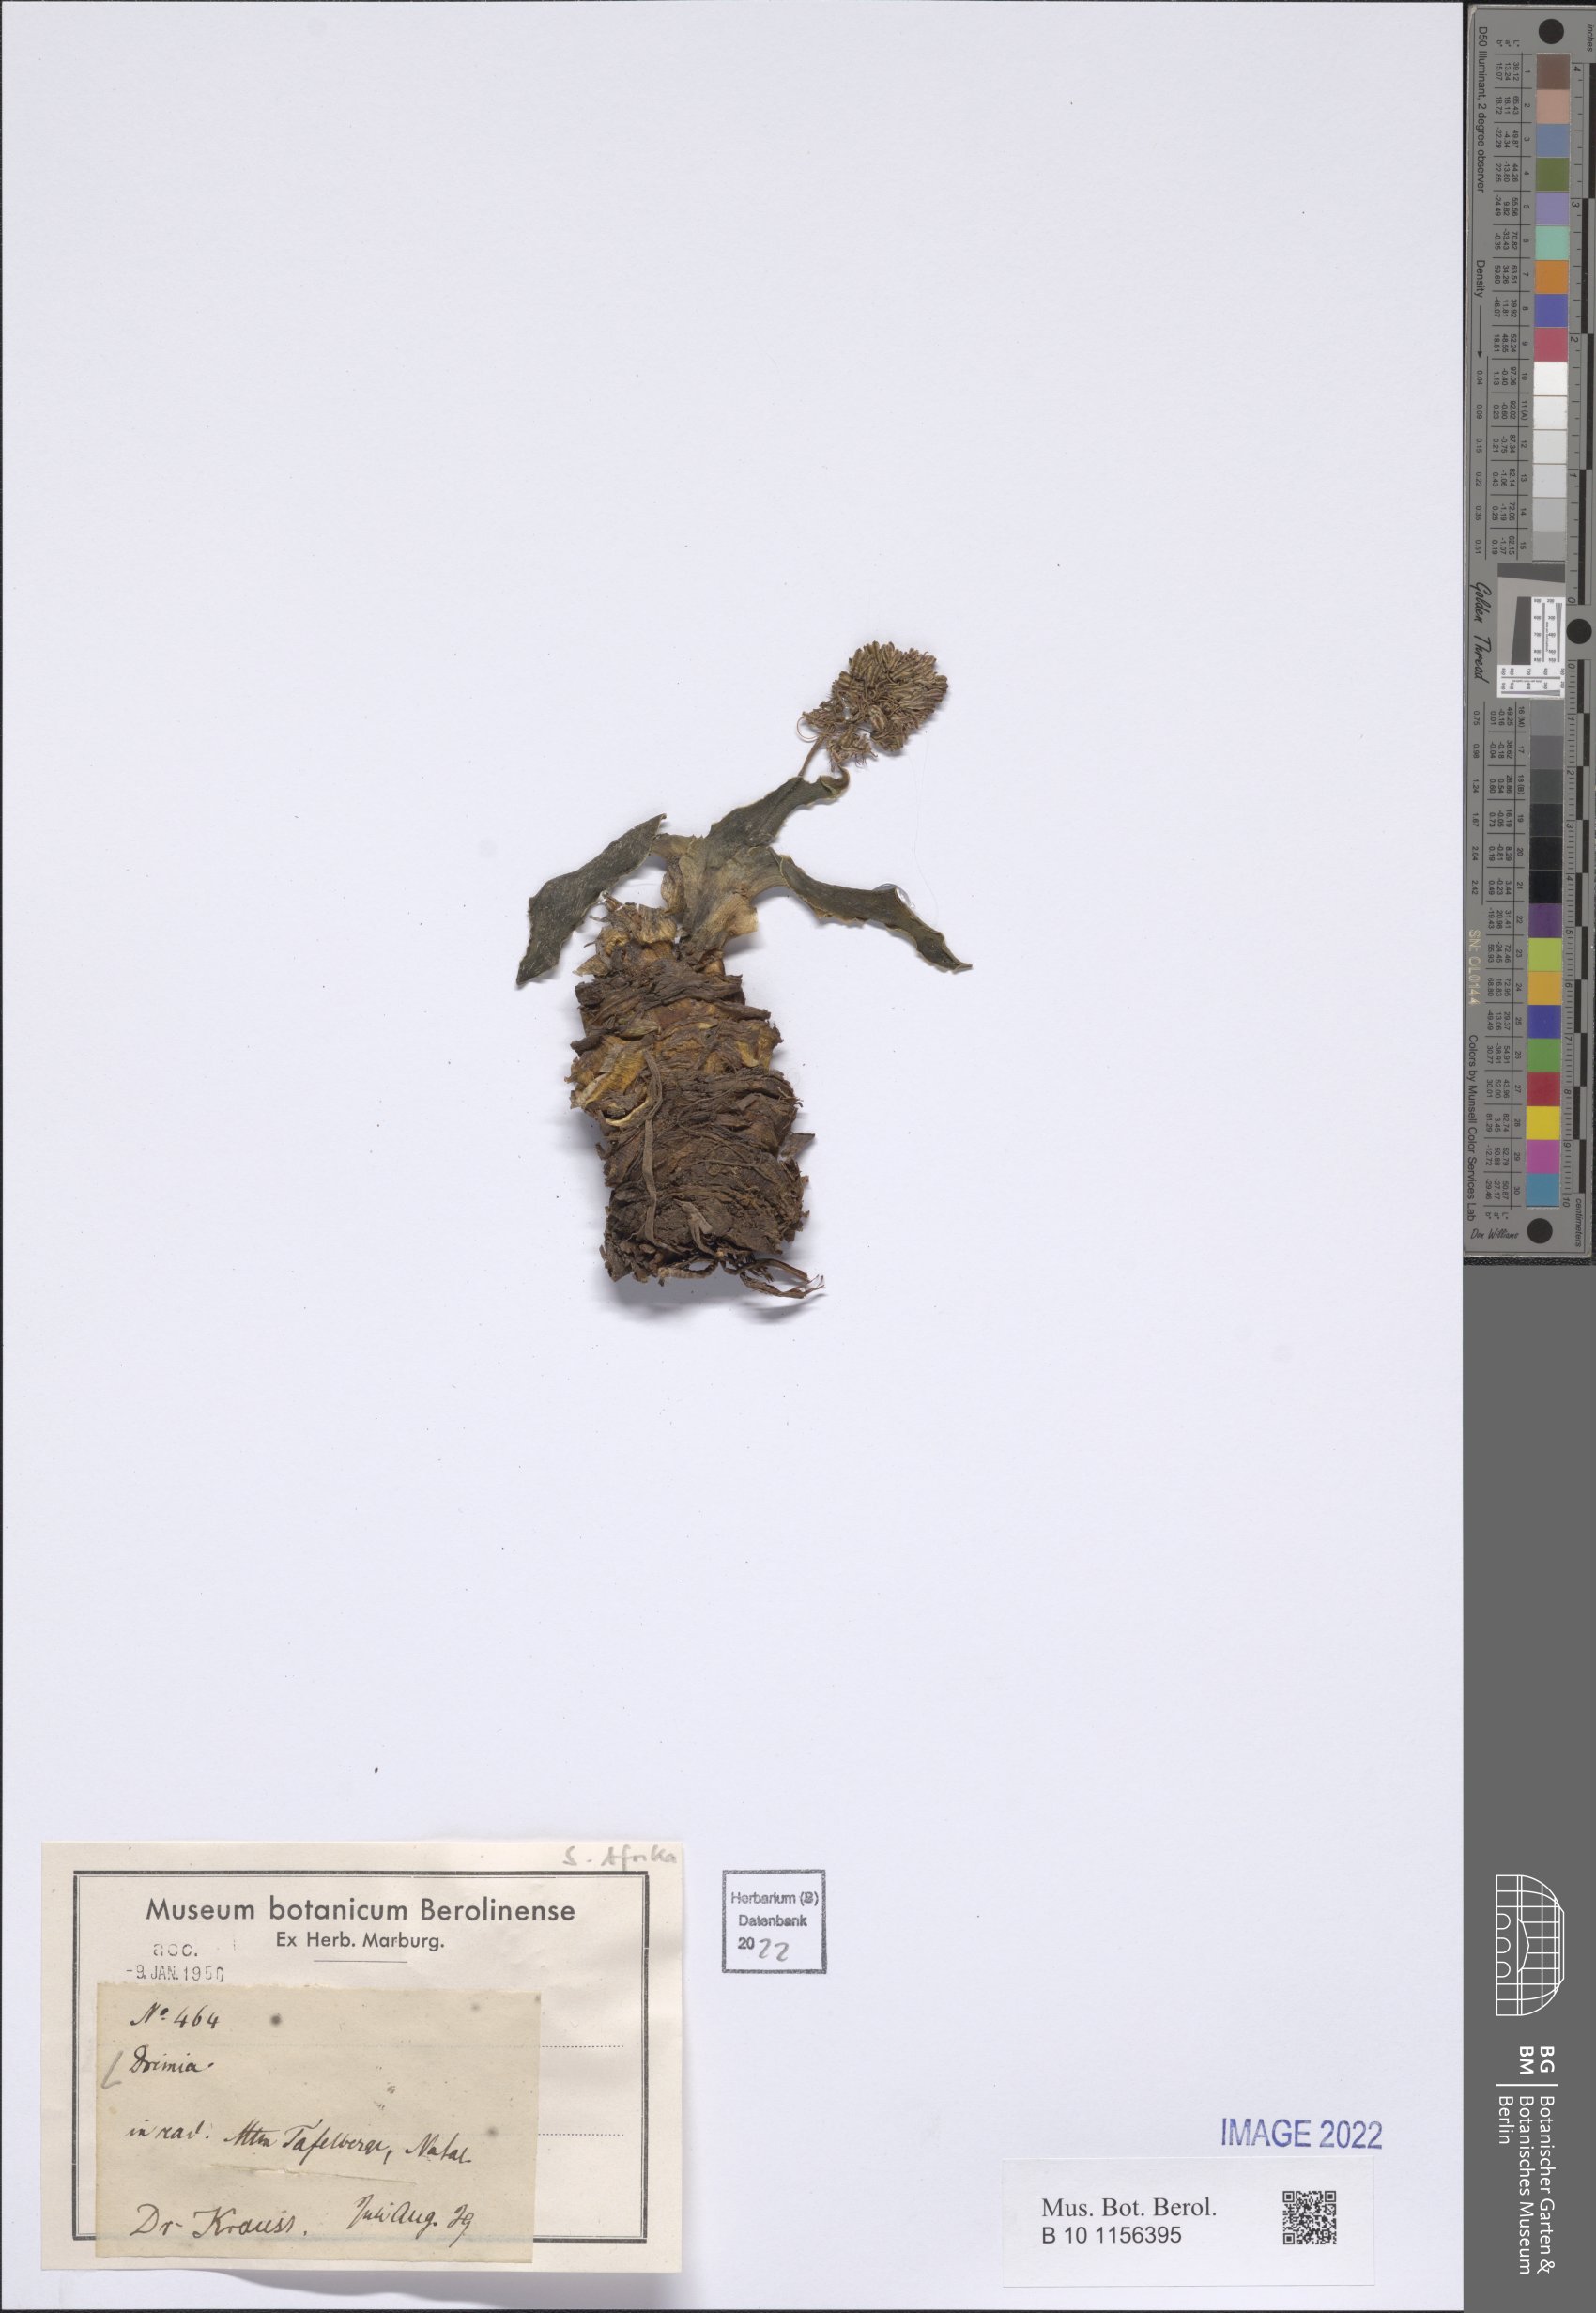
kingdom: Plantae
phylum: Tracheophyta
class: Liliopsida
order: Asparagales
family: Asparagaceae
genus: Drimia
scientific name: Drimia
